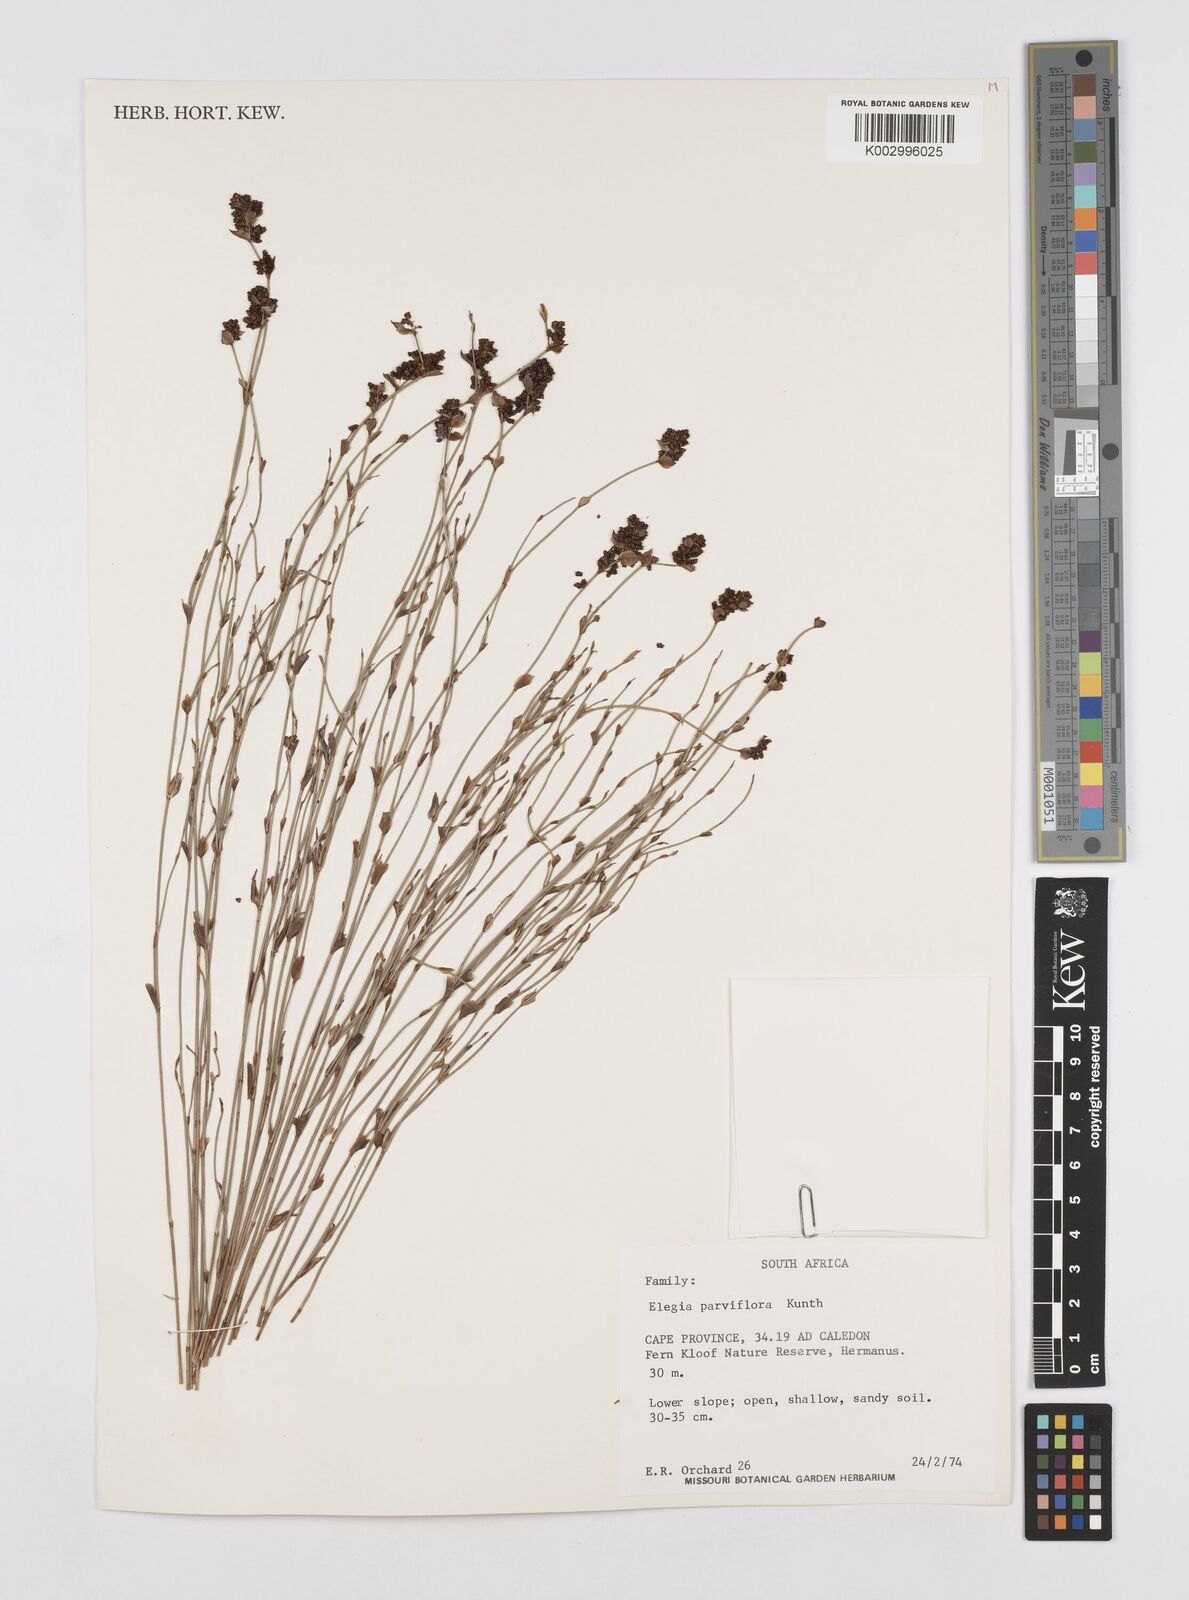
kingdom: Plantae
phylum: Tracheophyta
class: Liliopsida
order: Poales
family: Restionaceae
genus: Cannomois
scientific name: Cannomois parviflora
